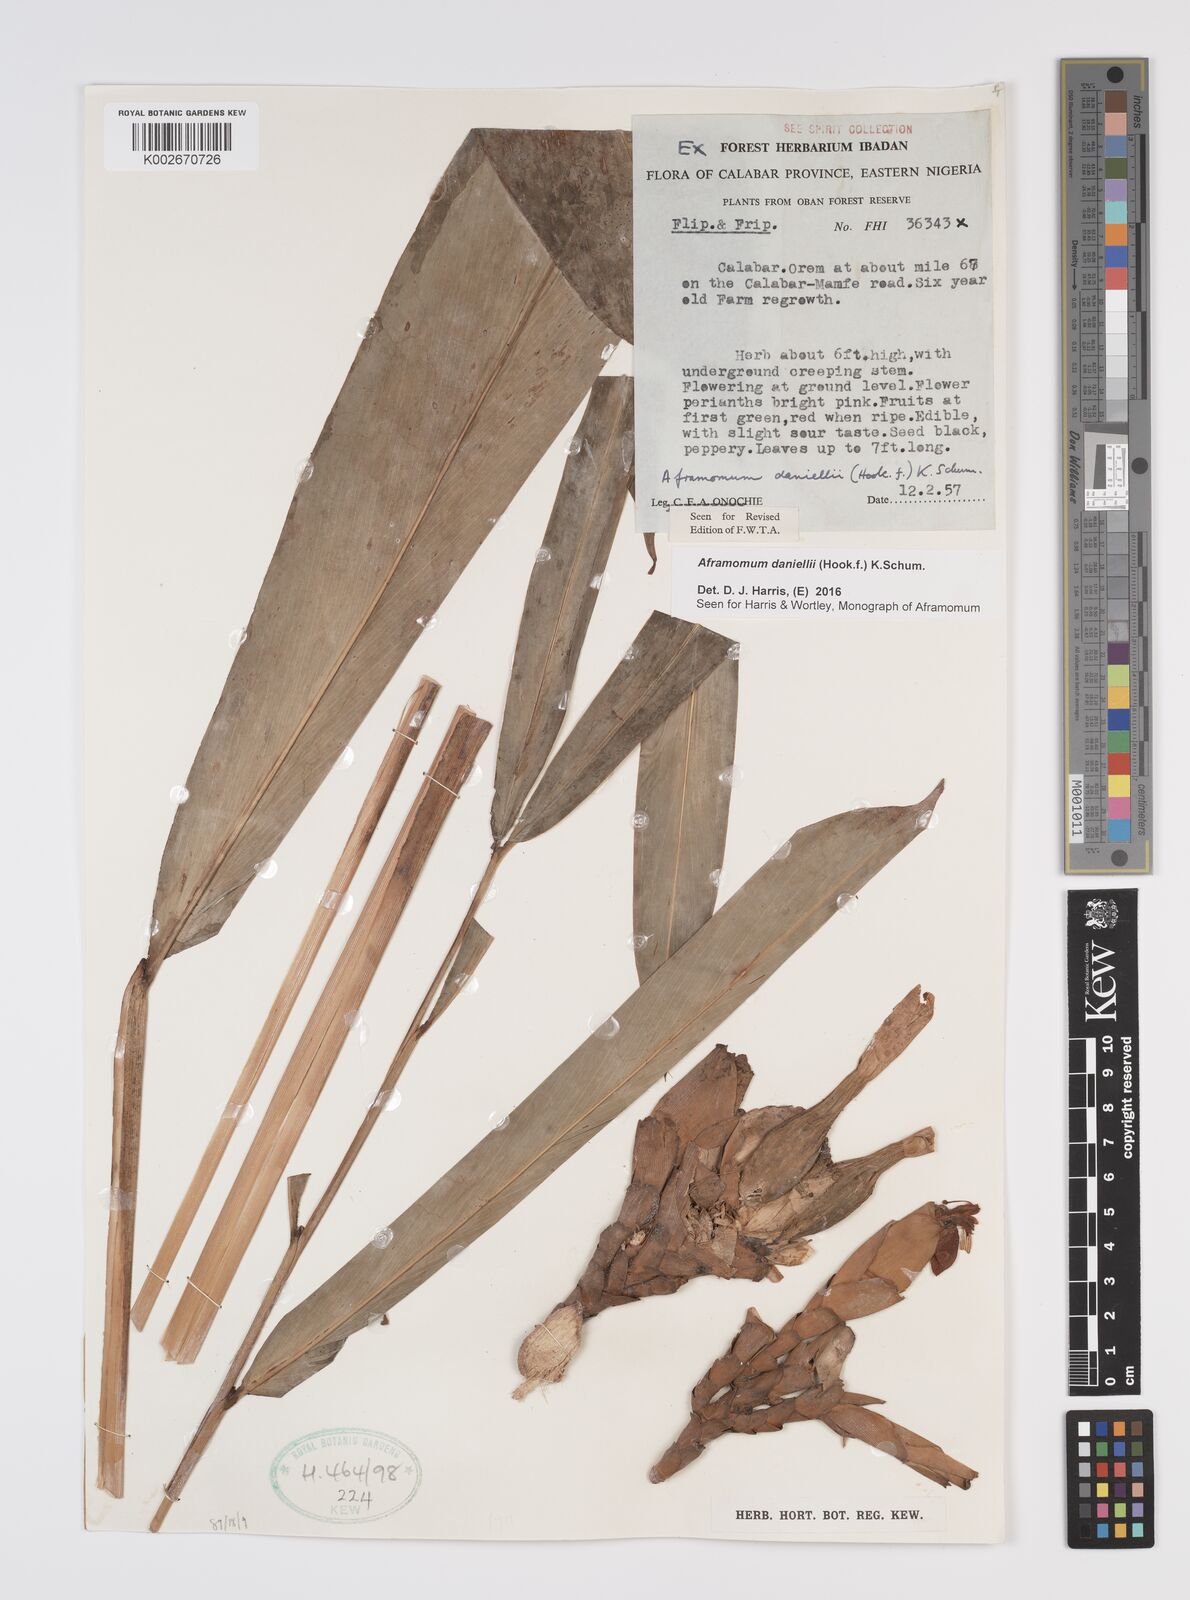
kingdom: Plantae
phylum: Tracheophyta
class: Liliopsida
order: Zingiberales
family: Zingiberaceae
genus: Aframomum
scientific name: Aframomum daniellii
